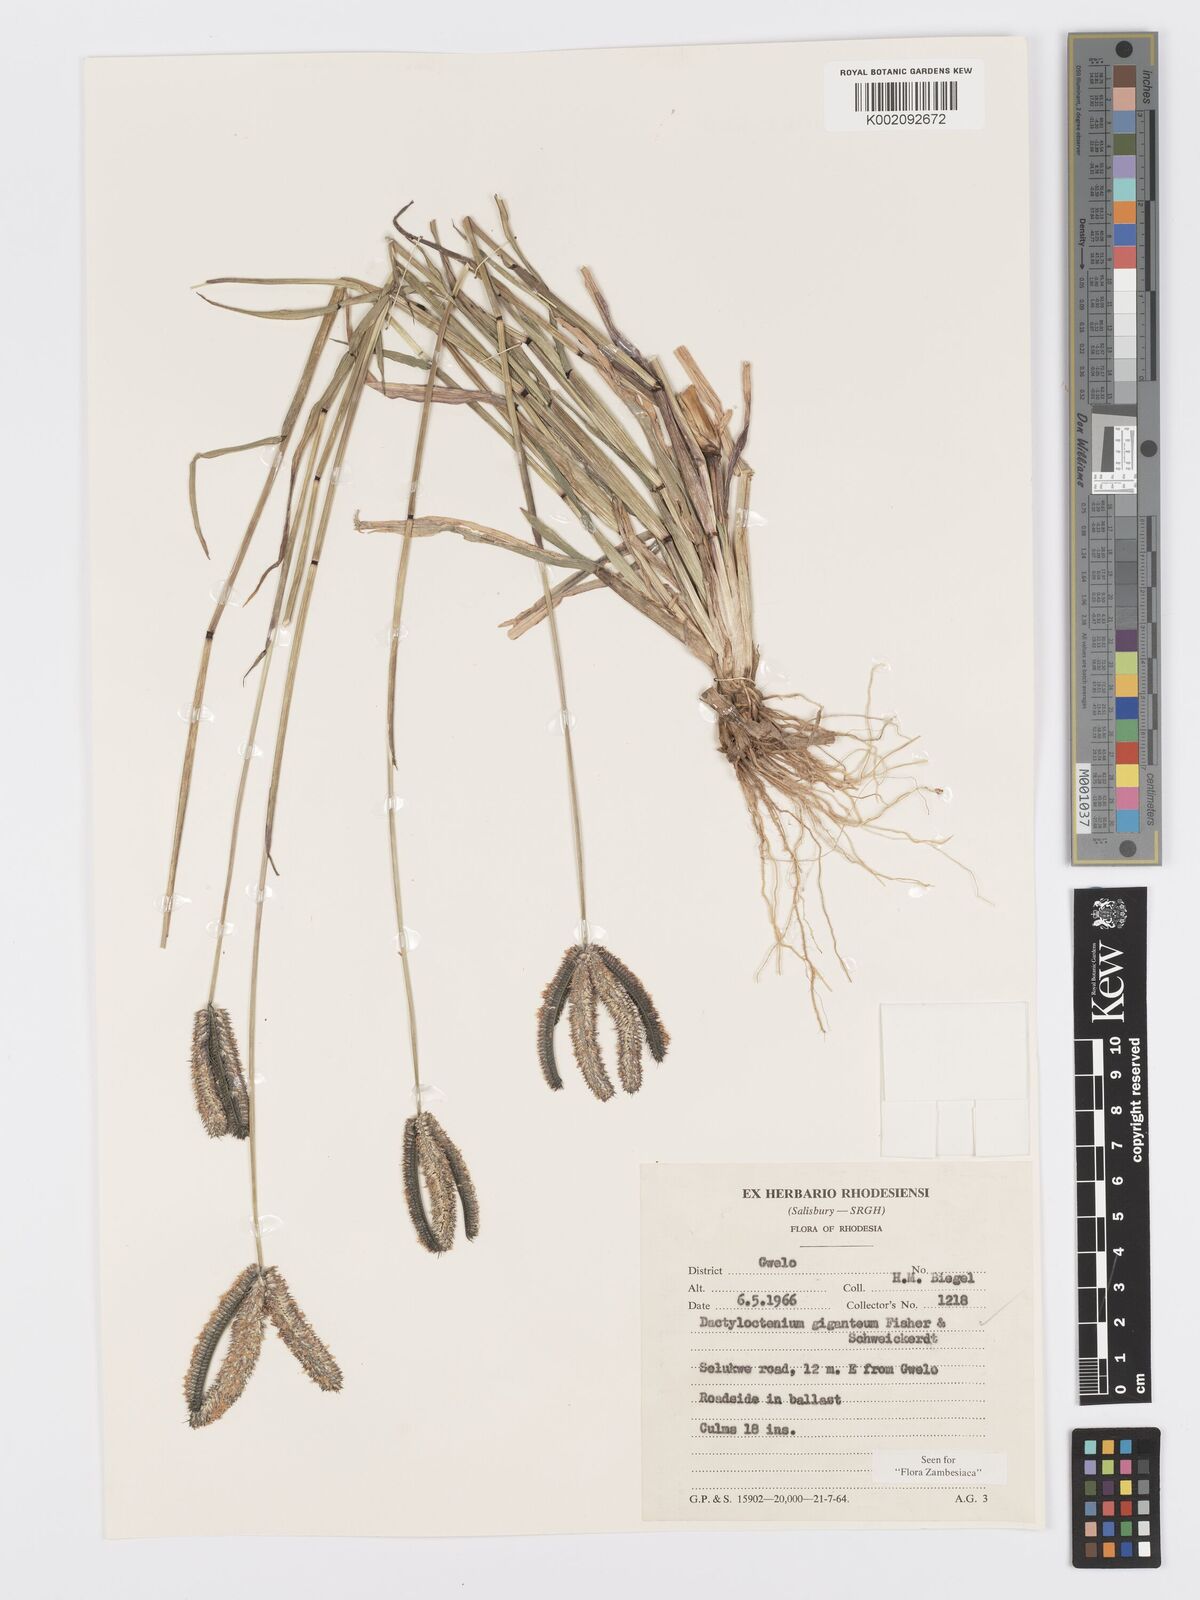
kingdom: Plantae
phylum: Tracheophyta
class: Liliopsida
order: Poales
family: Poaceae
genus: Dactyloctenium
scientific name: Dactyloctenium giganteum
